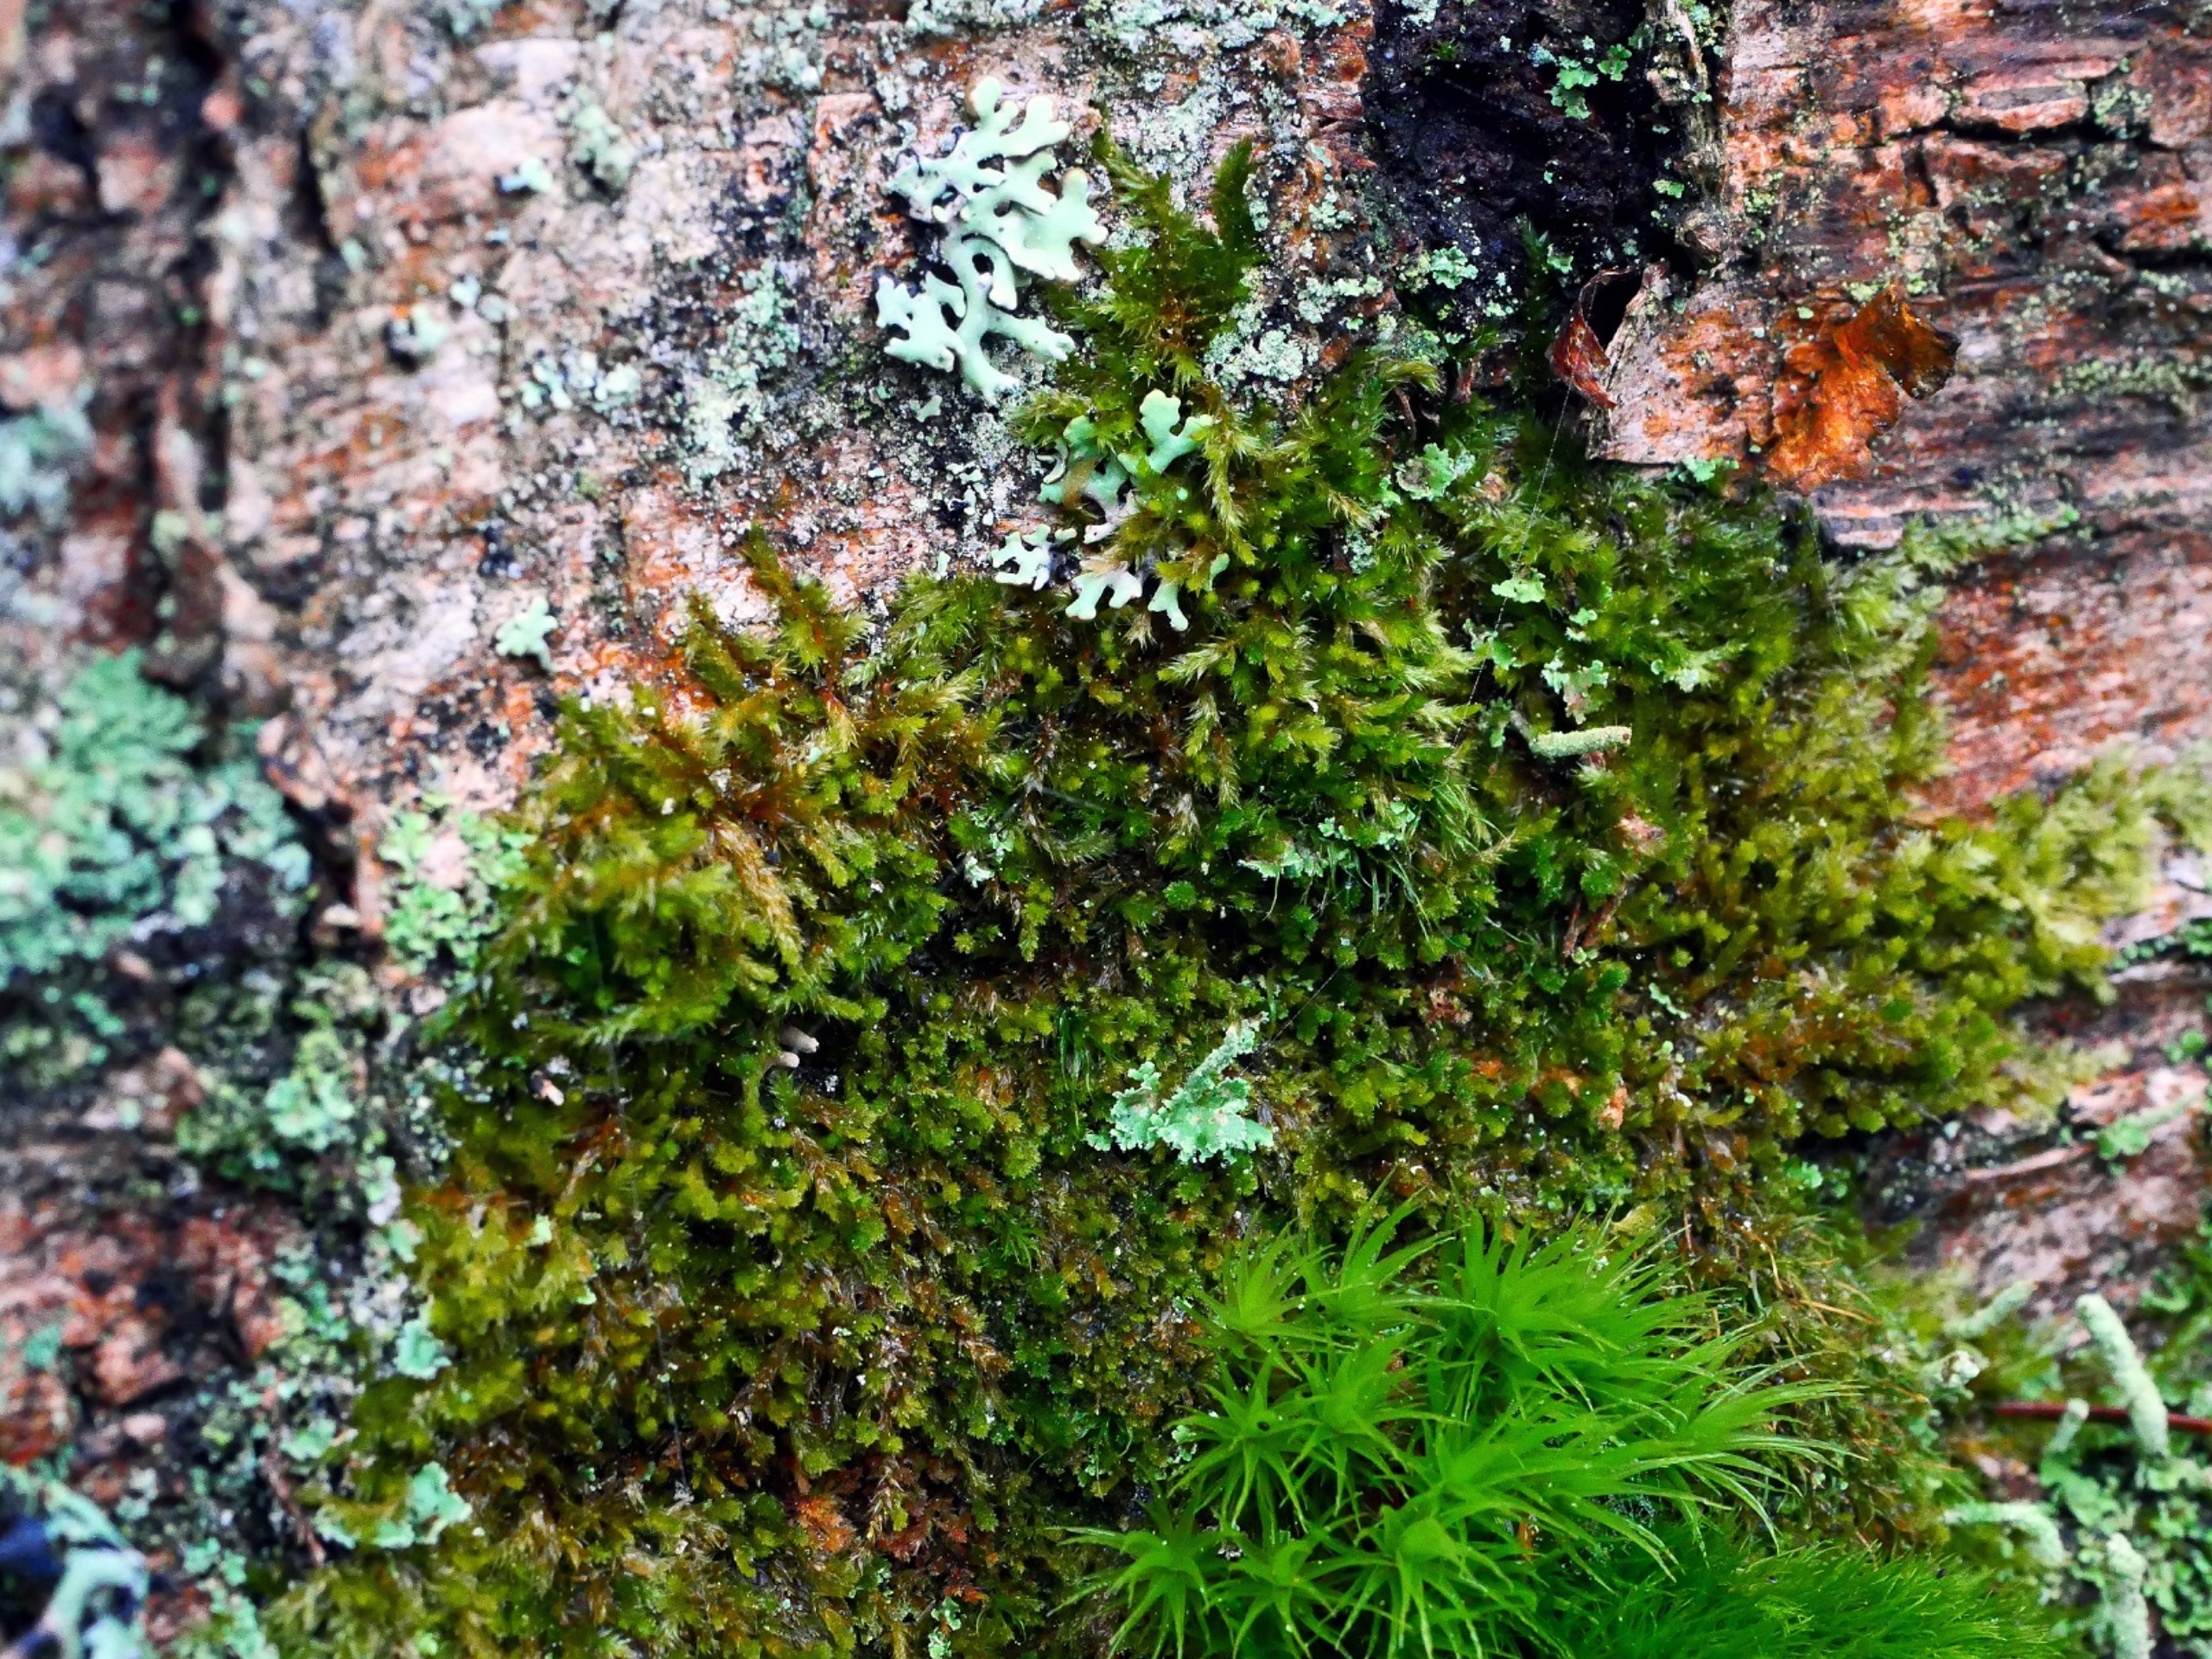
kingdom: Plantae
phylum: Bryophyta
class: Bryopsida
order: Hypnales
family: Pylaisiadelphaceae
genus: Platygyrium
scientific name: Platygyrium repens
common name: Mørk yngleknop
